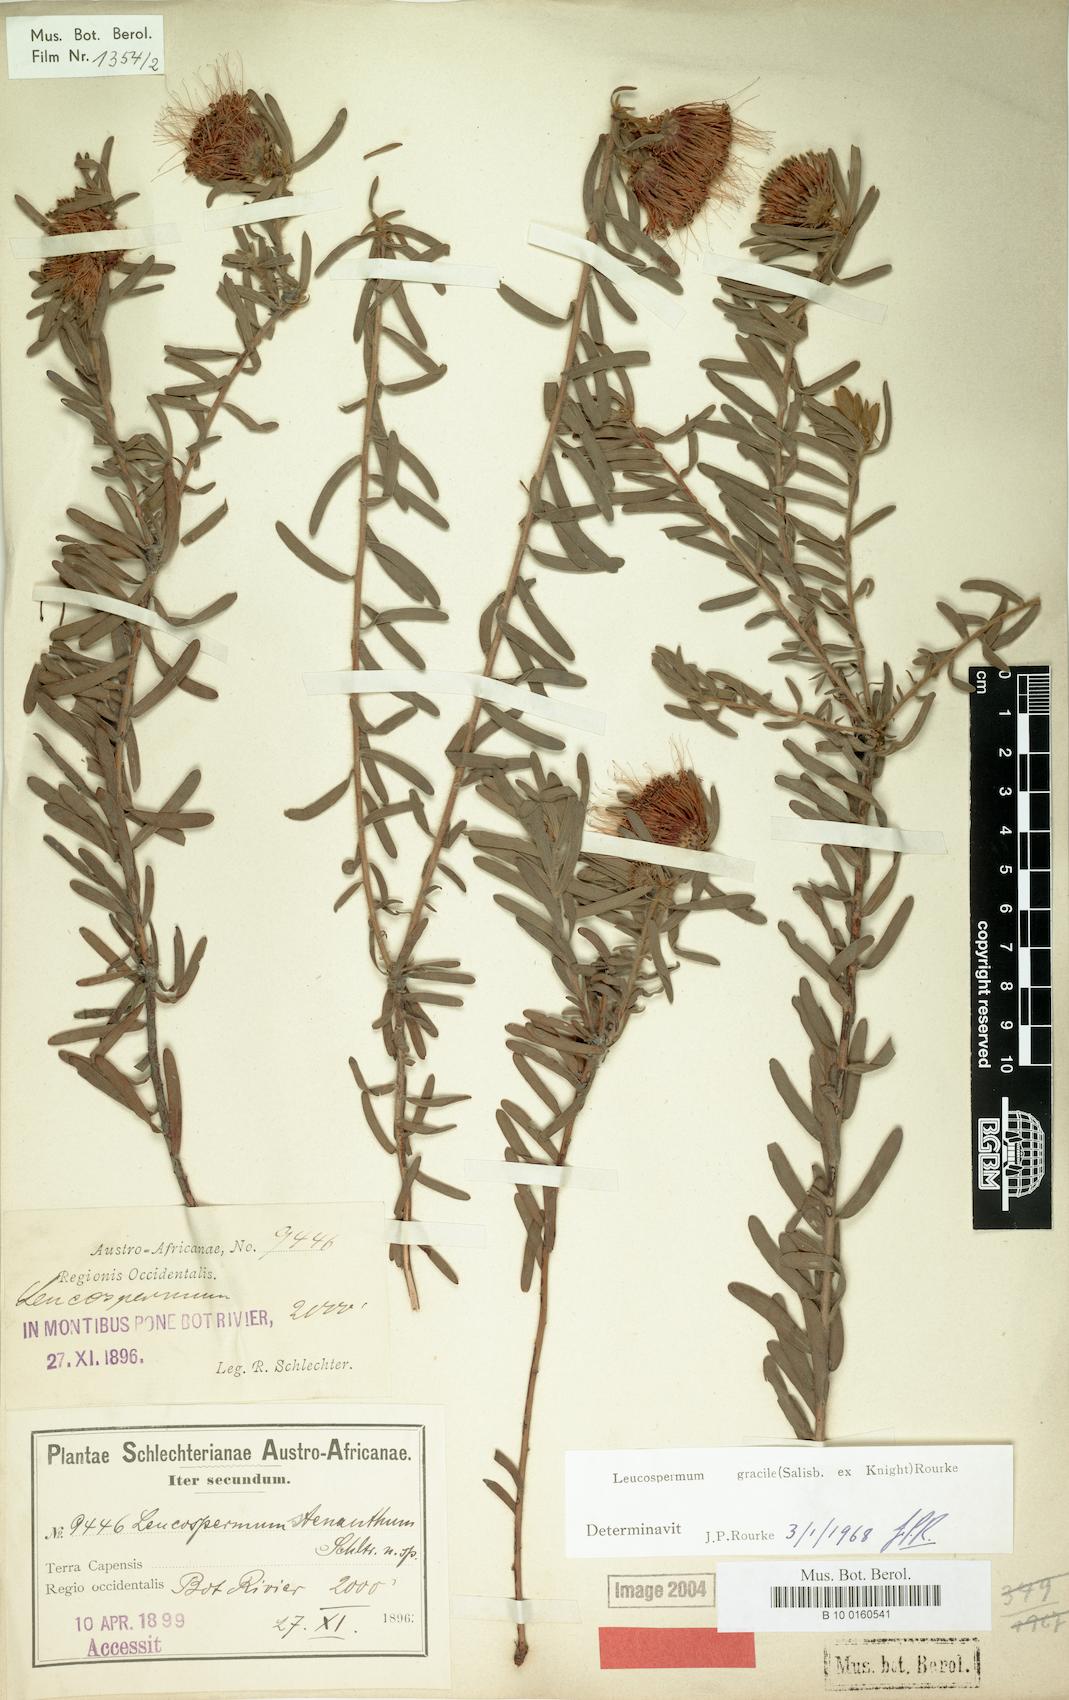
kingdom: Plantae
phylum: Tracheophyta
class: Magnoliopsida
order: Proteales
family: Proteaceae
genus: Leucospermum
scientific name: Leucospermum gracile
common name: Hermanus pincushion
